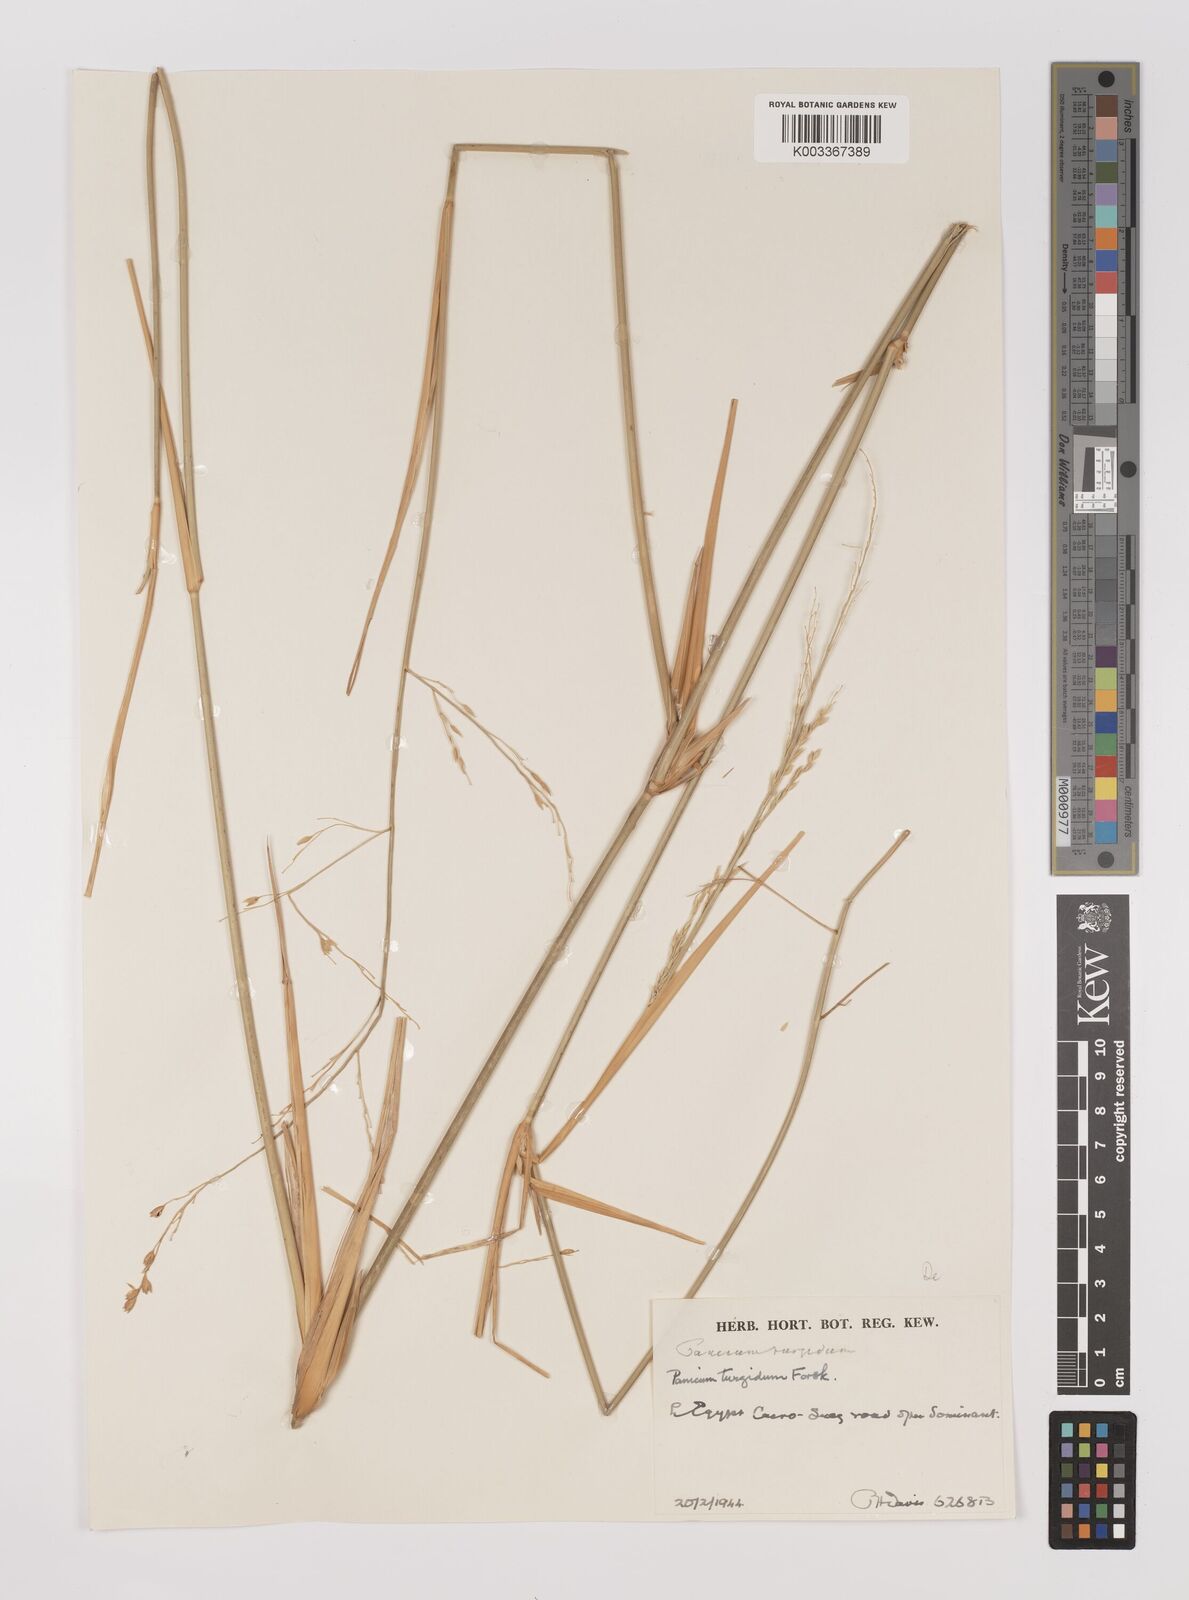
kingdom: Plantae
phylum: Tracheophyta
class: Liliopsida
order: Poales
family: Poaceae
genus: Panicum
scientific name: Panicum turgidum
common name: Desert grass
